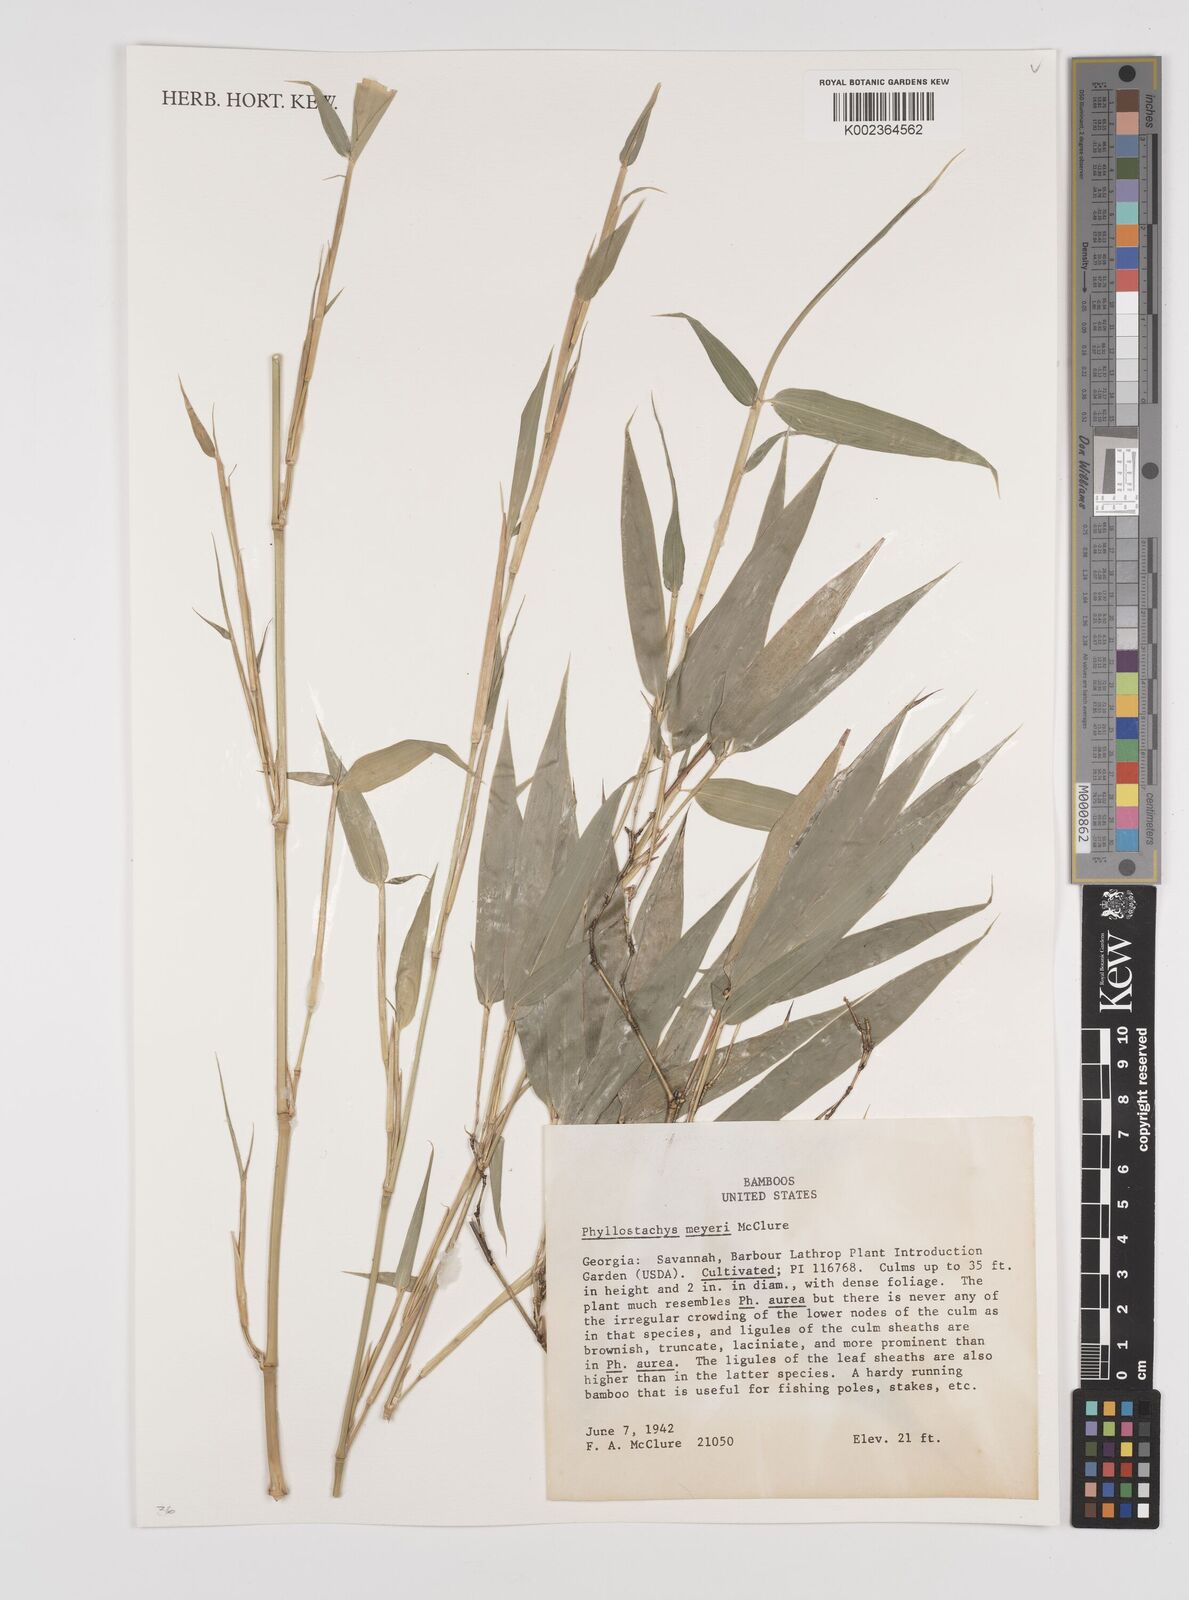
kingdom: Plantae
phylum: Tracheophyta
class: Liliopsida
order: Poales
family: Poaceae
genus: Phyllostachys
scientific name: Phyllostachys meyeri
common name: Meyer's bamboo
